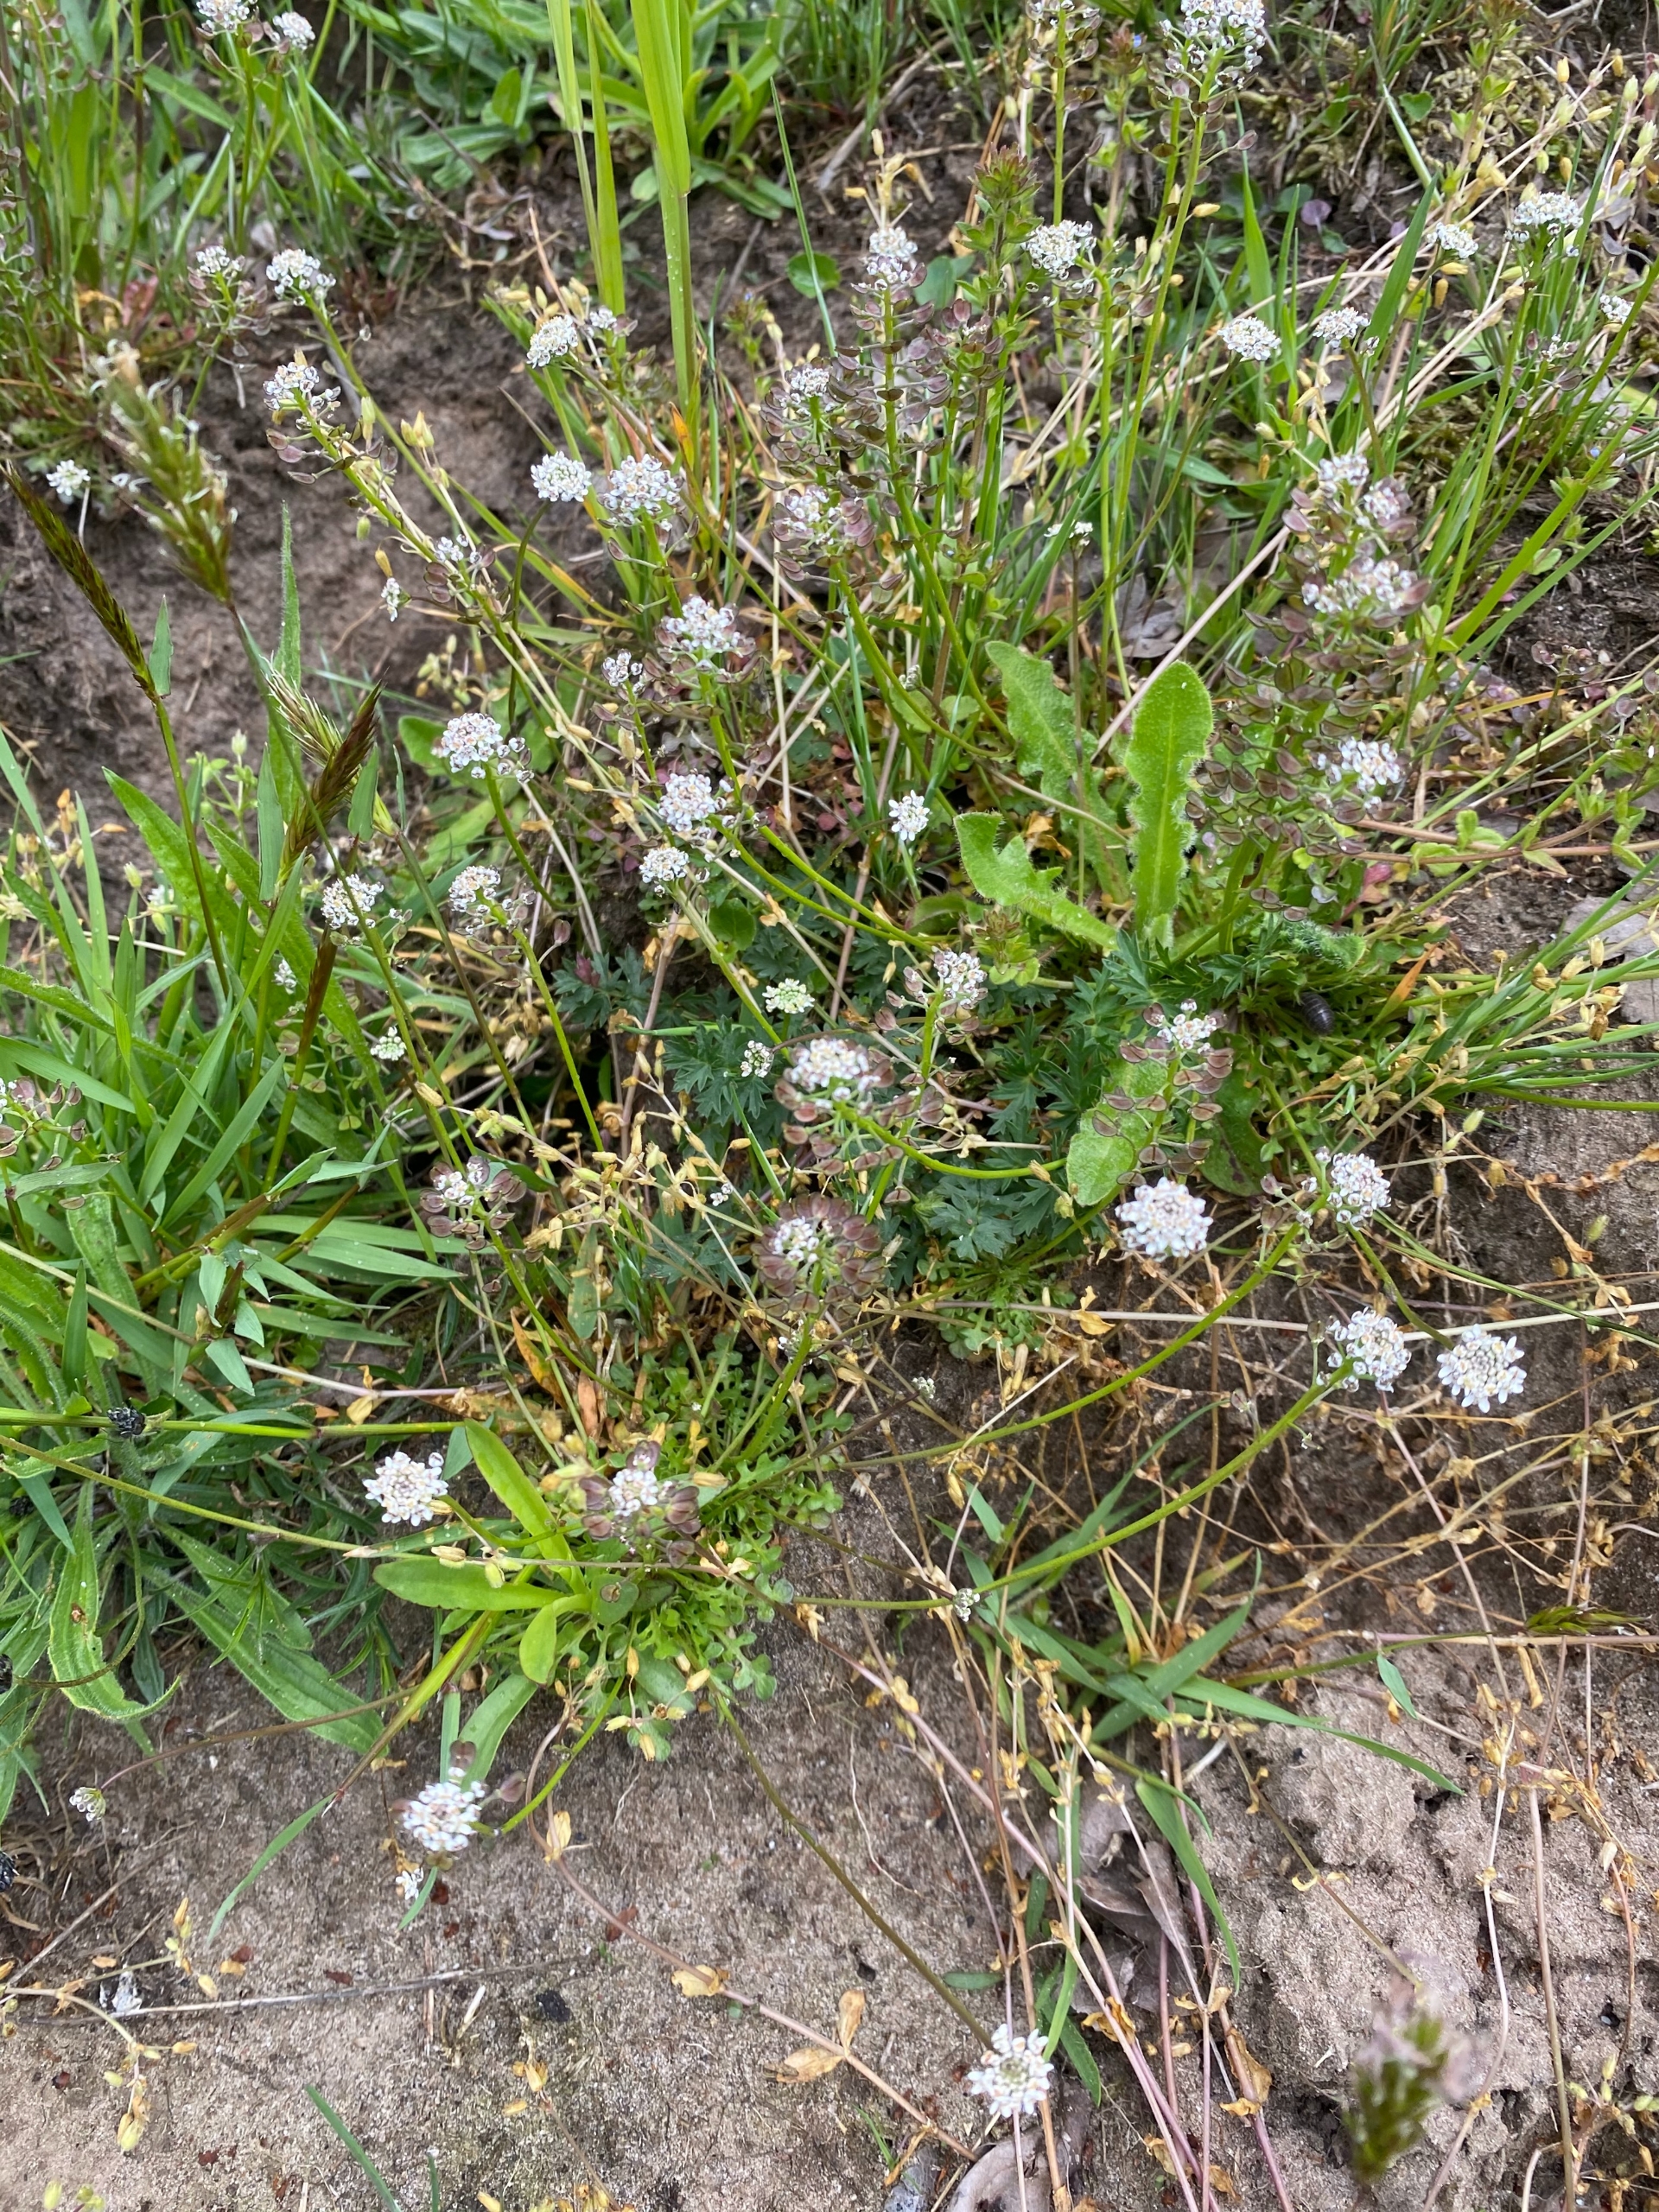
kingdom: Plantae
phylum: Tracheophyta
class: Magnoliopsida
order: Brassicales
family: Brassicaceae
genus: Teesdalia
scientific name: Teesdalia nudicaulis
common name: Flipkrave
